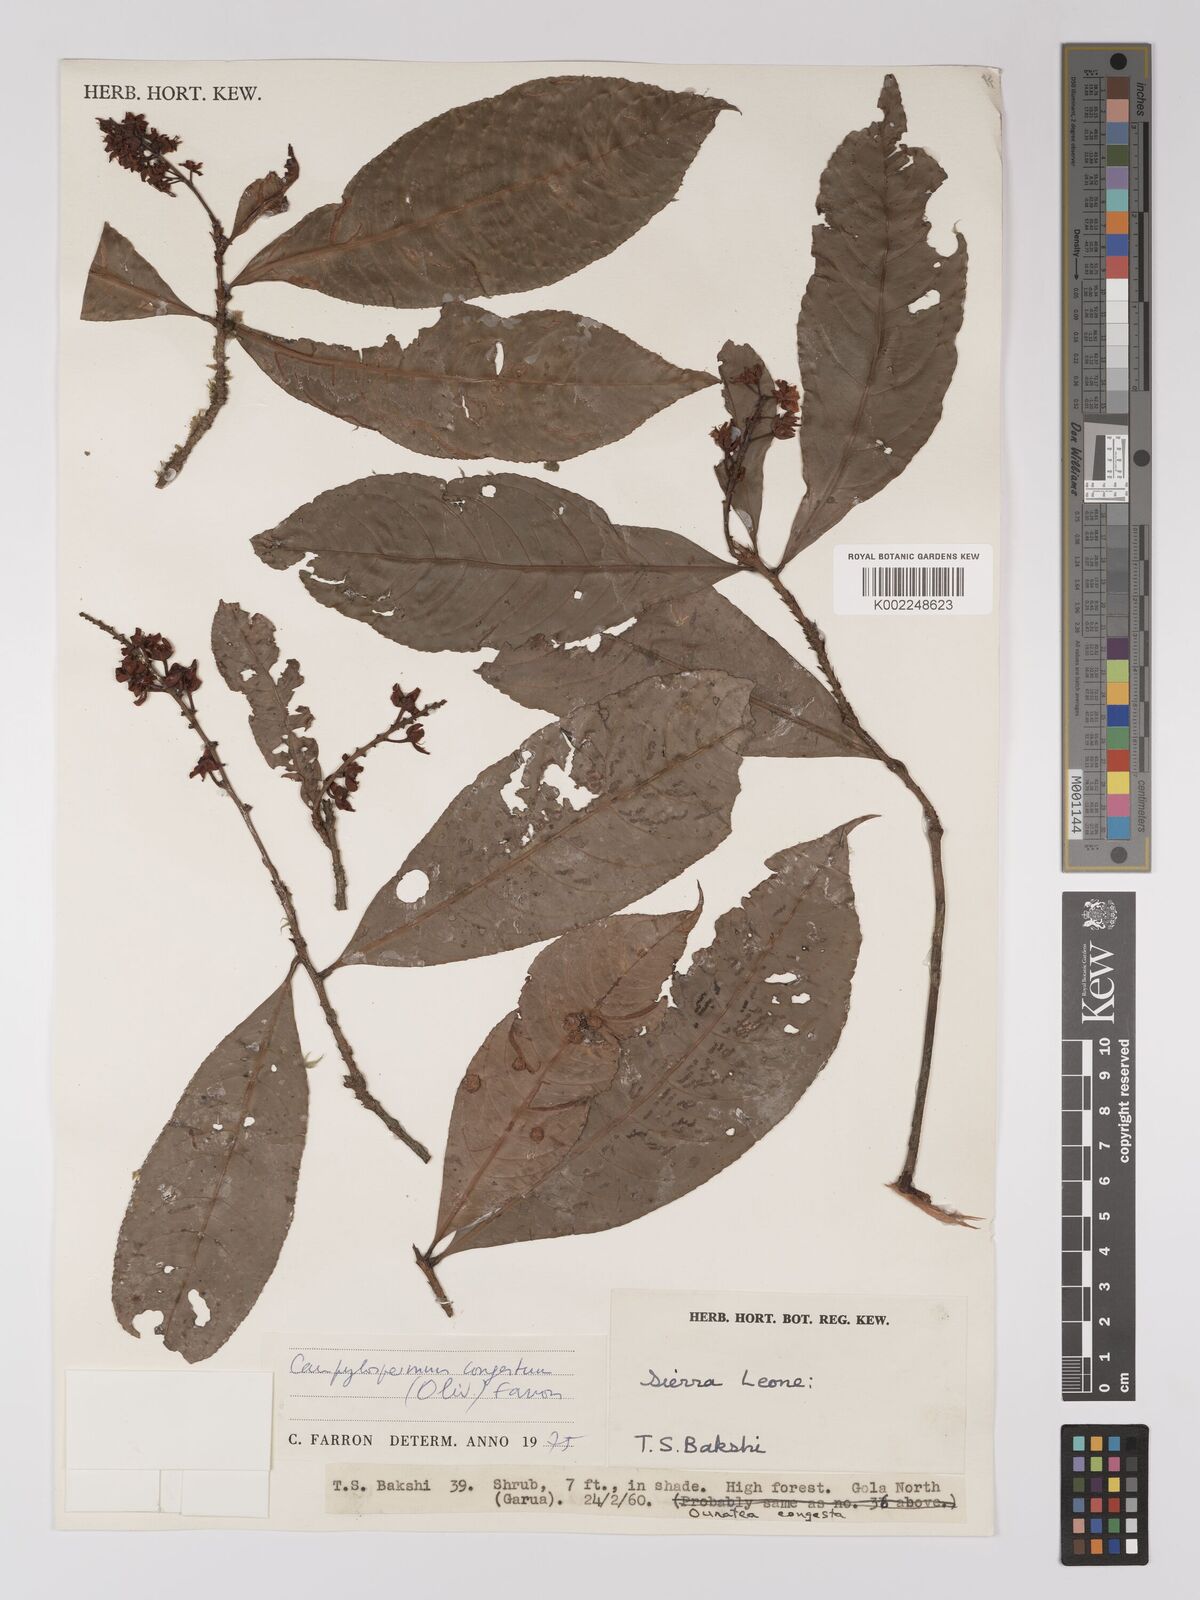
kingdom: Plantae
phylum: Tracheophyta
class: Magnoliopsida
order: Malpighiales
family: Ochnaceae
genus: Campylospermum
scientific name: Campylospermum congestum
